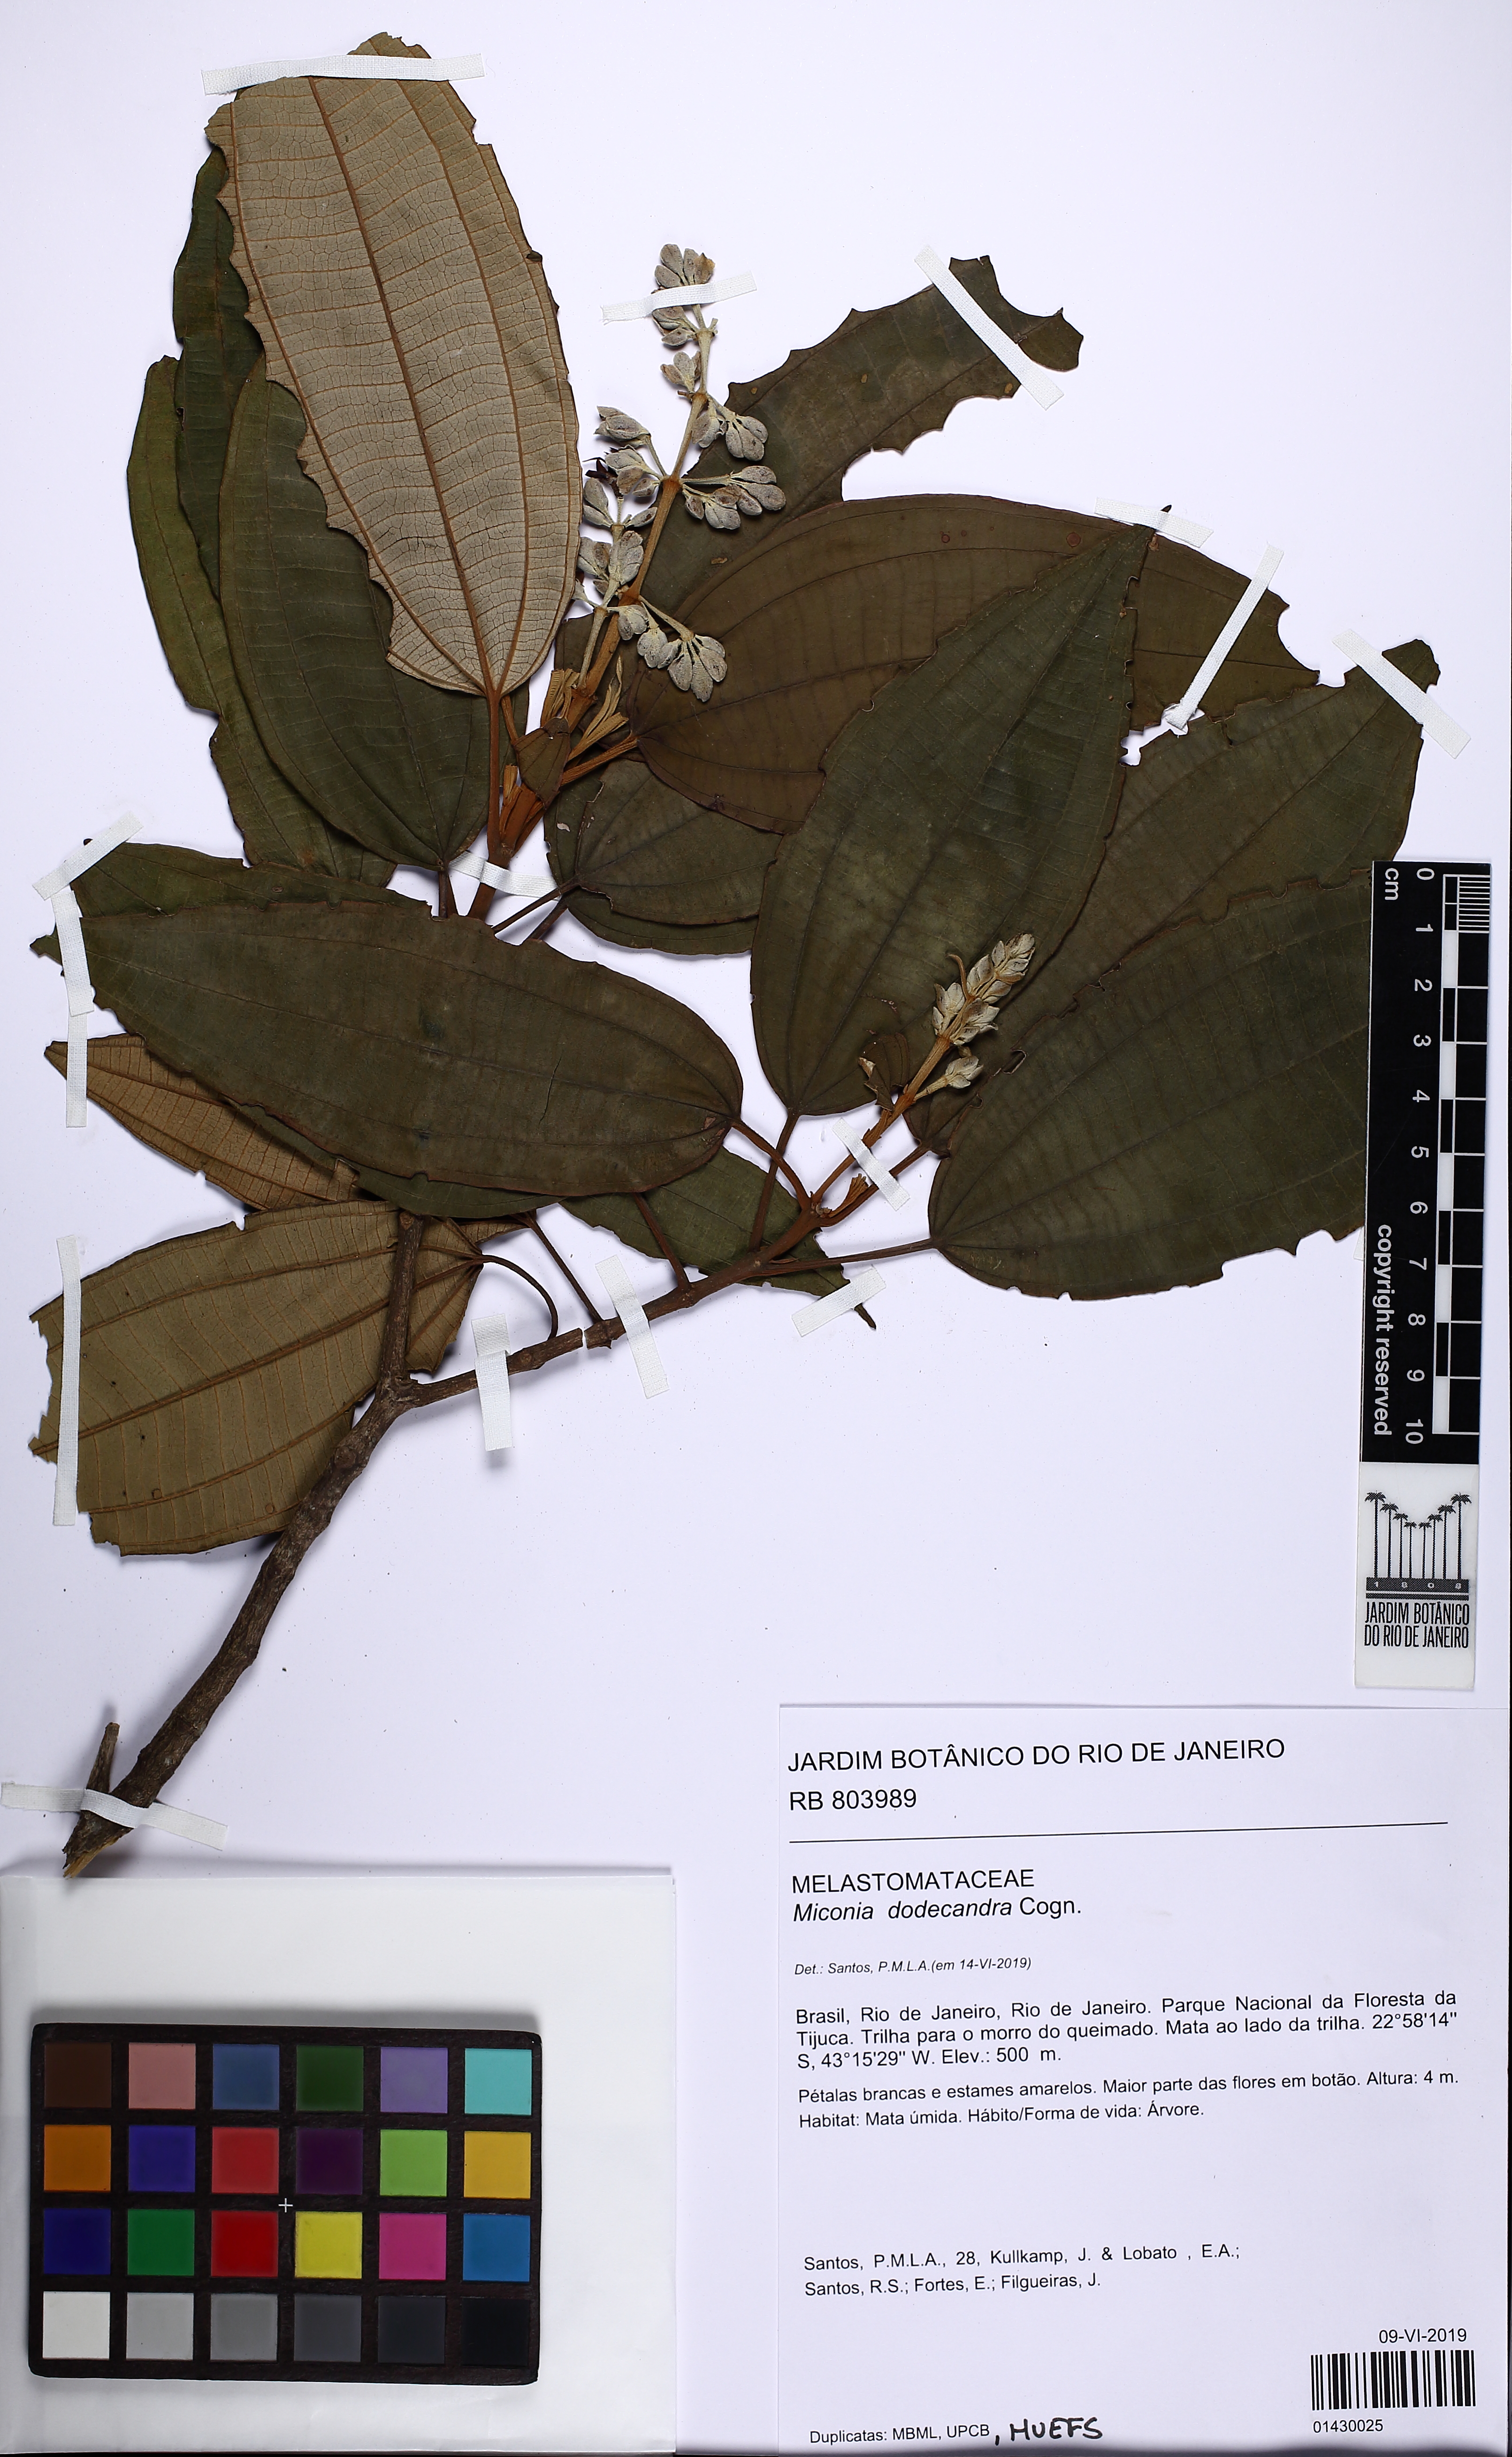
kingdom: Plantae
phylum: Tracheophyta
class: Magnoliopsida
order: Myrtales
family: Melastomataceae
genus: Miconia
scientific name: Miconia dodecandra
